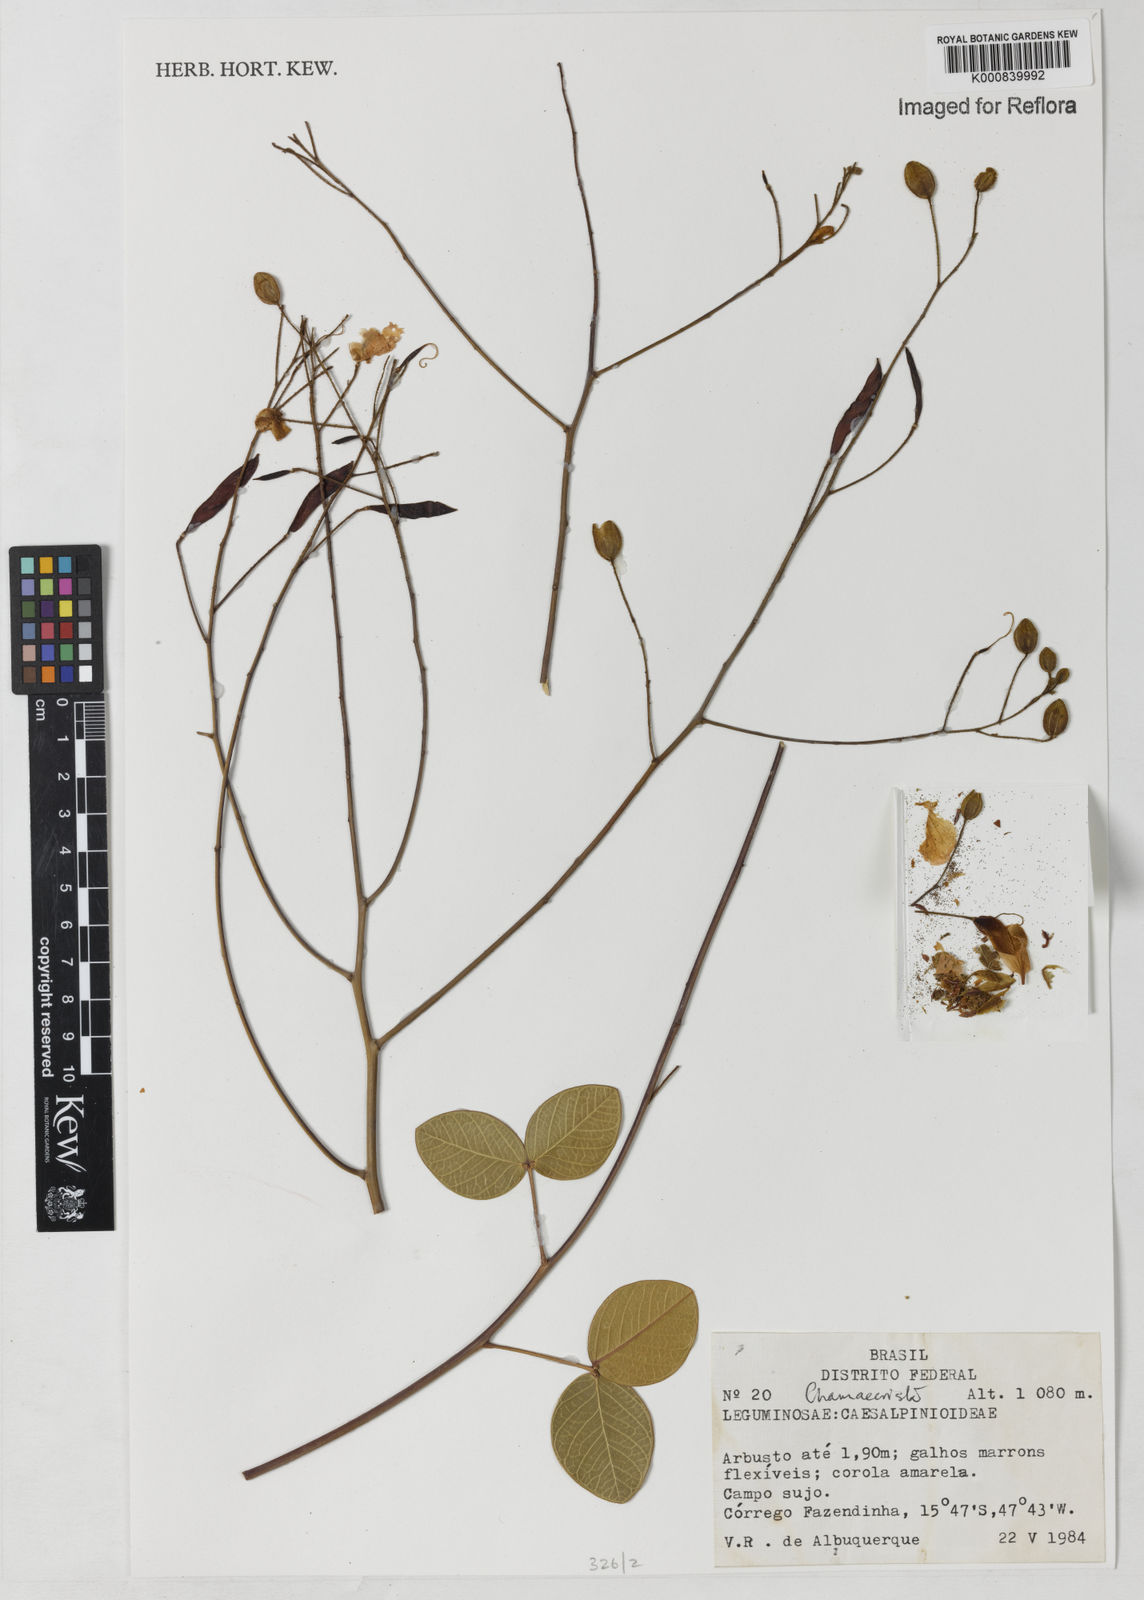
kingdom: Plantae
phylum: Tracheophyta
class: Magnoliopsida
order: Fabales
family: Fabaceae
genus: Chamaecrista
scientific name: Chamaecrista
